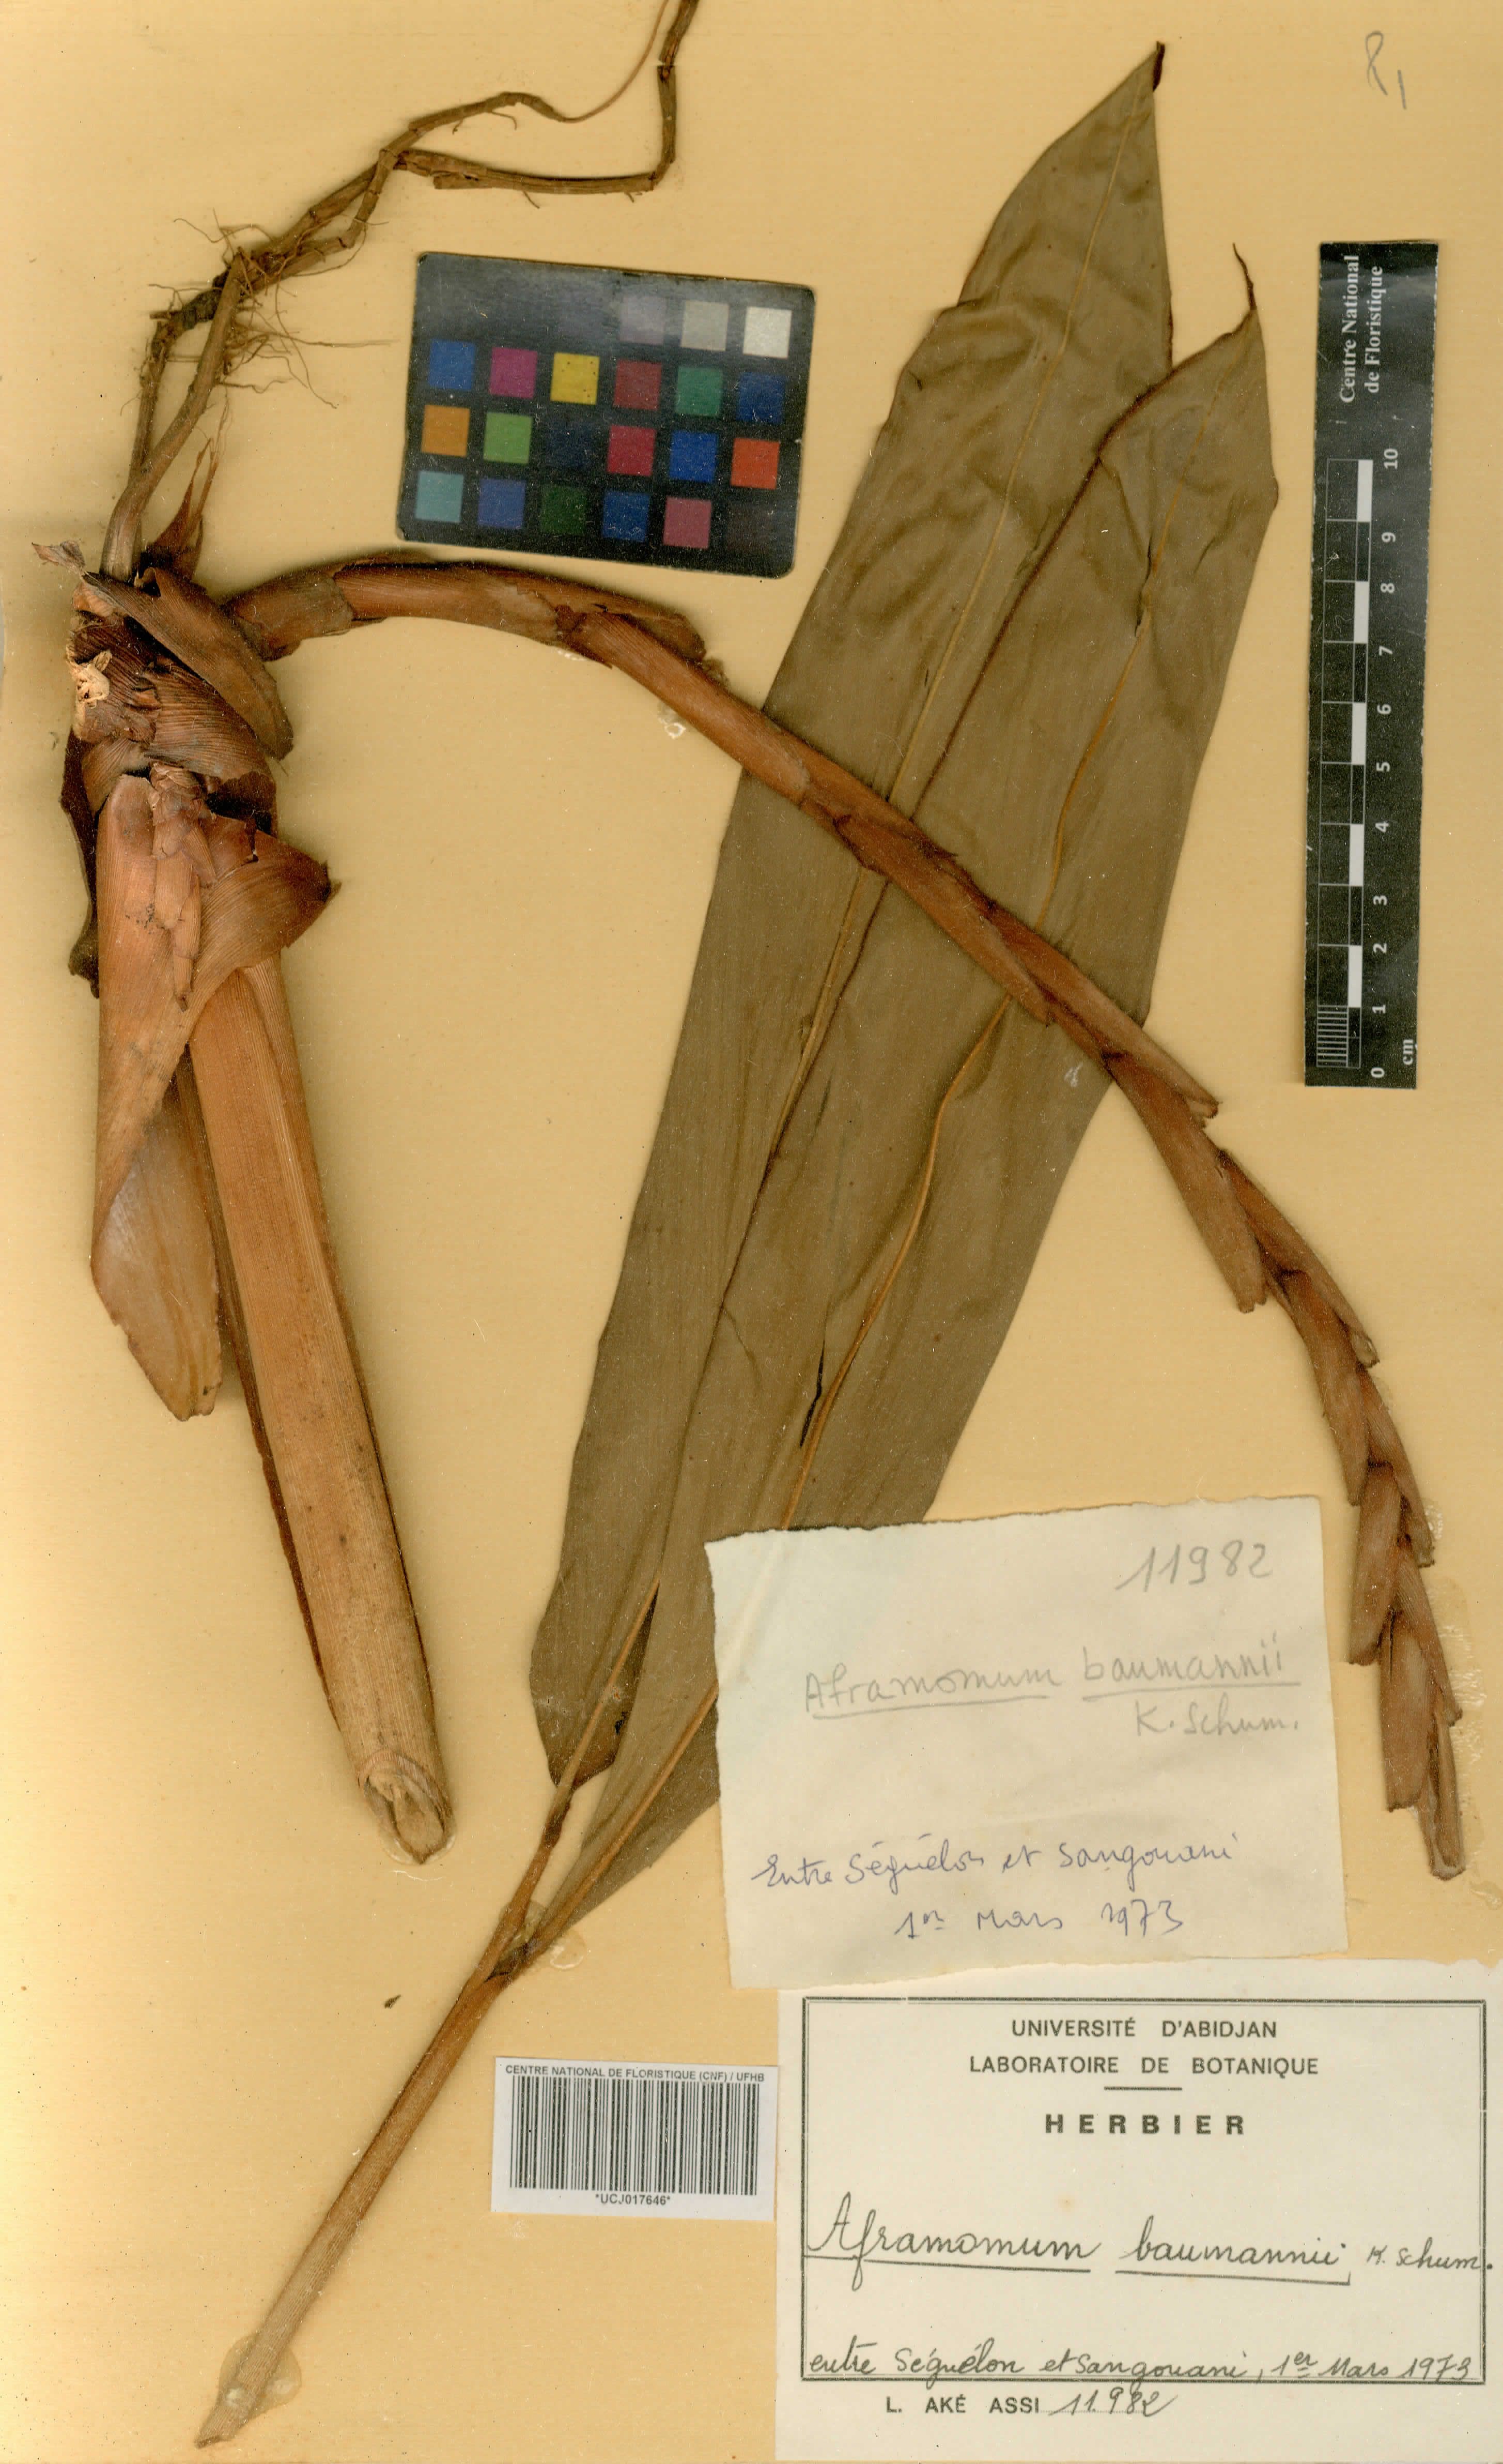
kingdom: Plantae
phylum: Tracheophyta
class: Liliopsida
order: Zingiberales
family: Zingiberaceae
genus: Aframomum
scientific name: Aframomum angustifolium
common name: Guinea grains
